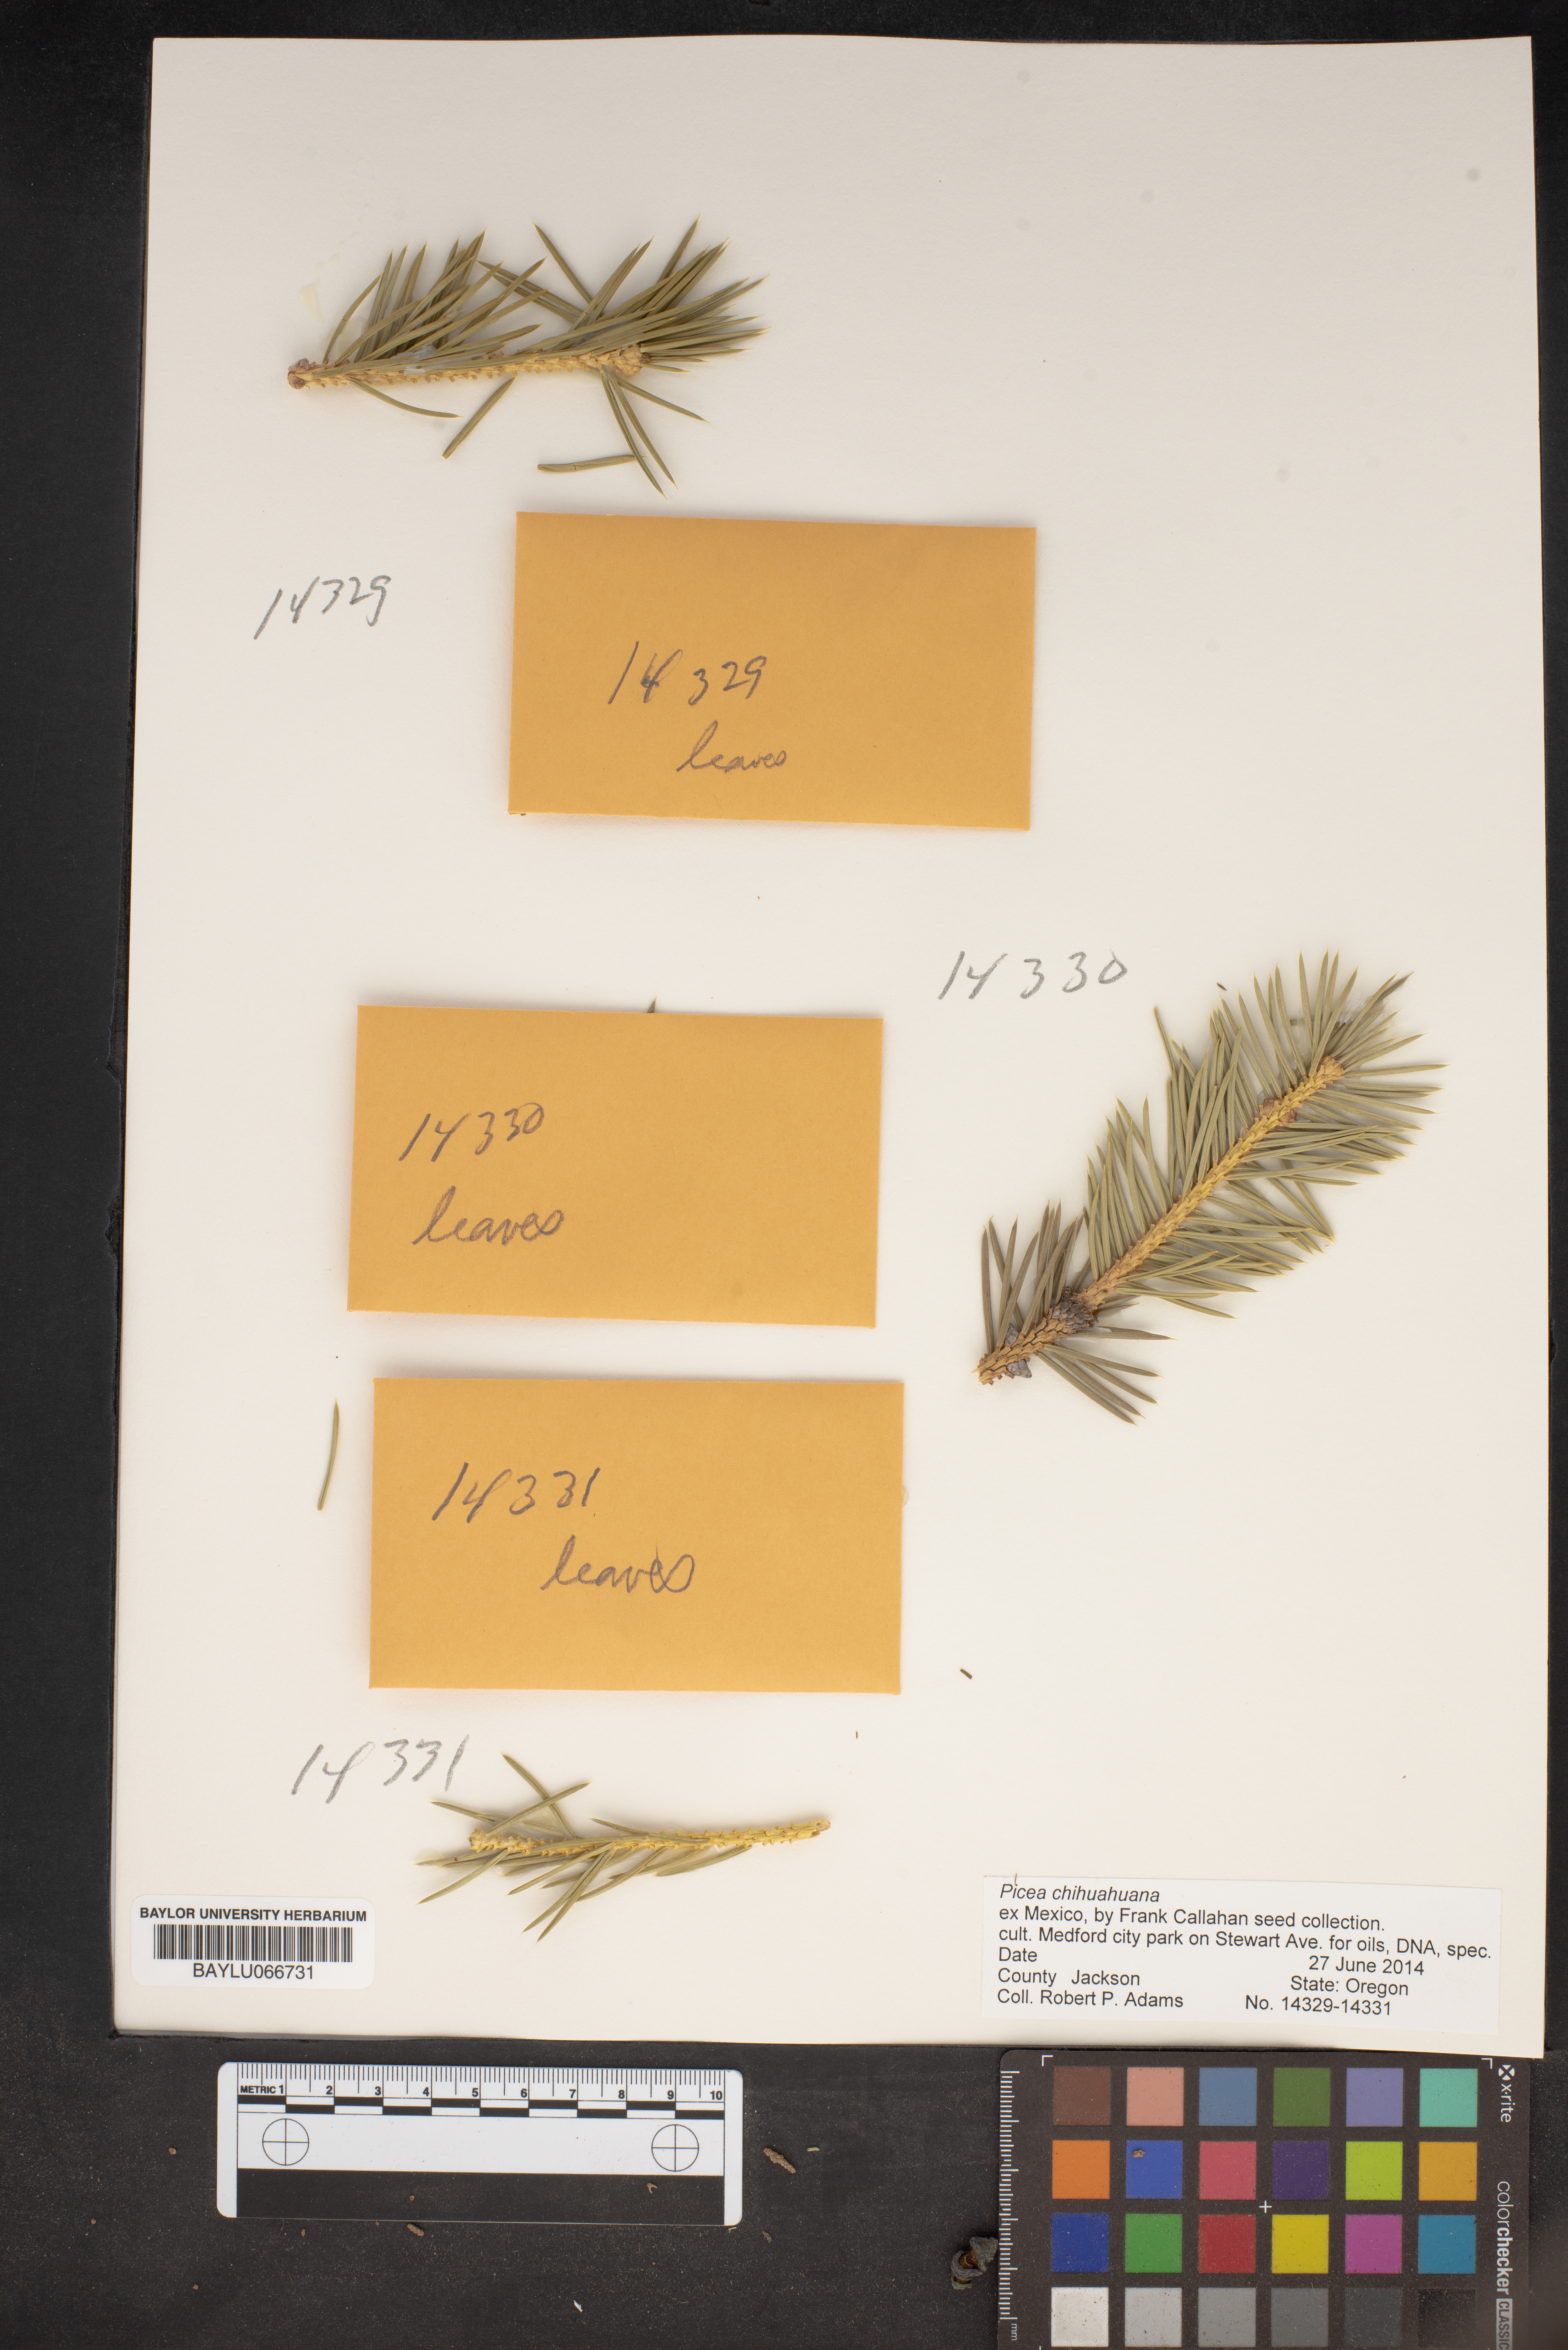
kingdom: Plantae
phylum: Tracheophyta
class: Pinopsida
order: Pinales
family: Pinaceae
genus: Picea
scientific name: Picea chihuahuana
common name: Chihuahua spruce
